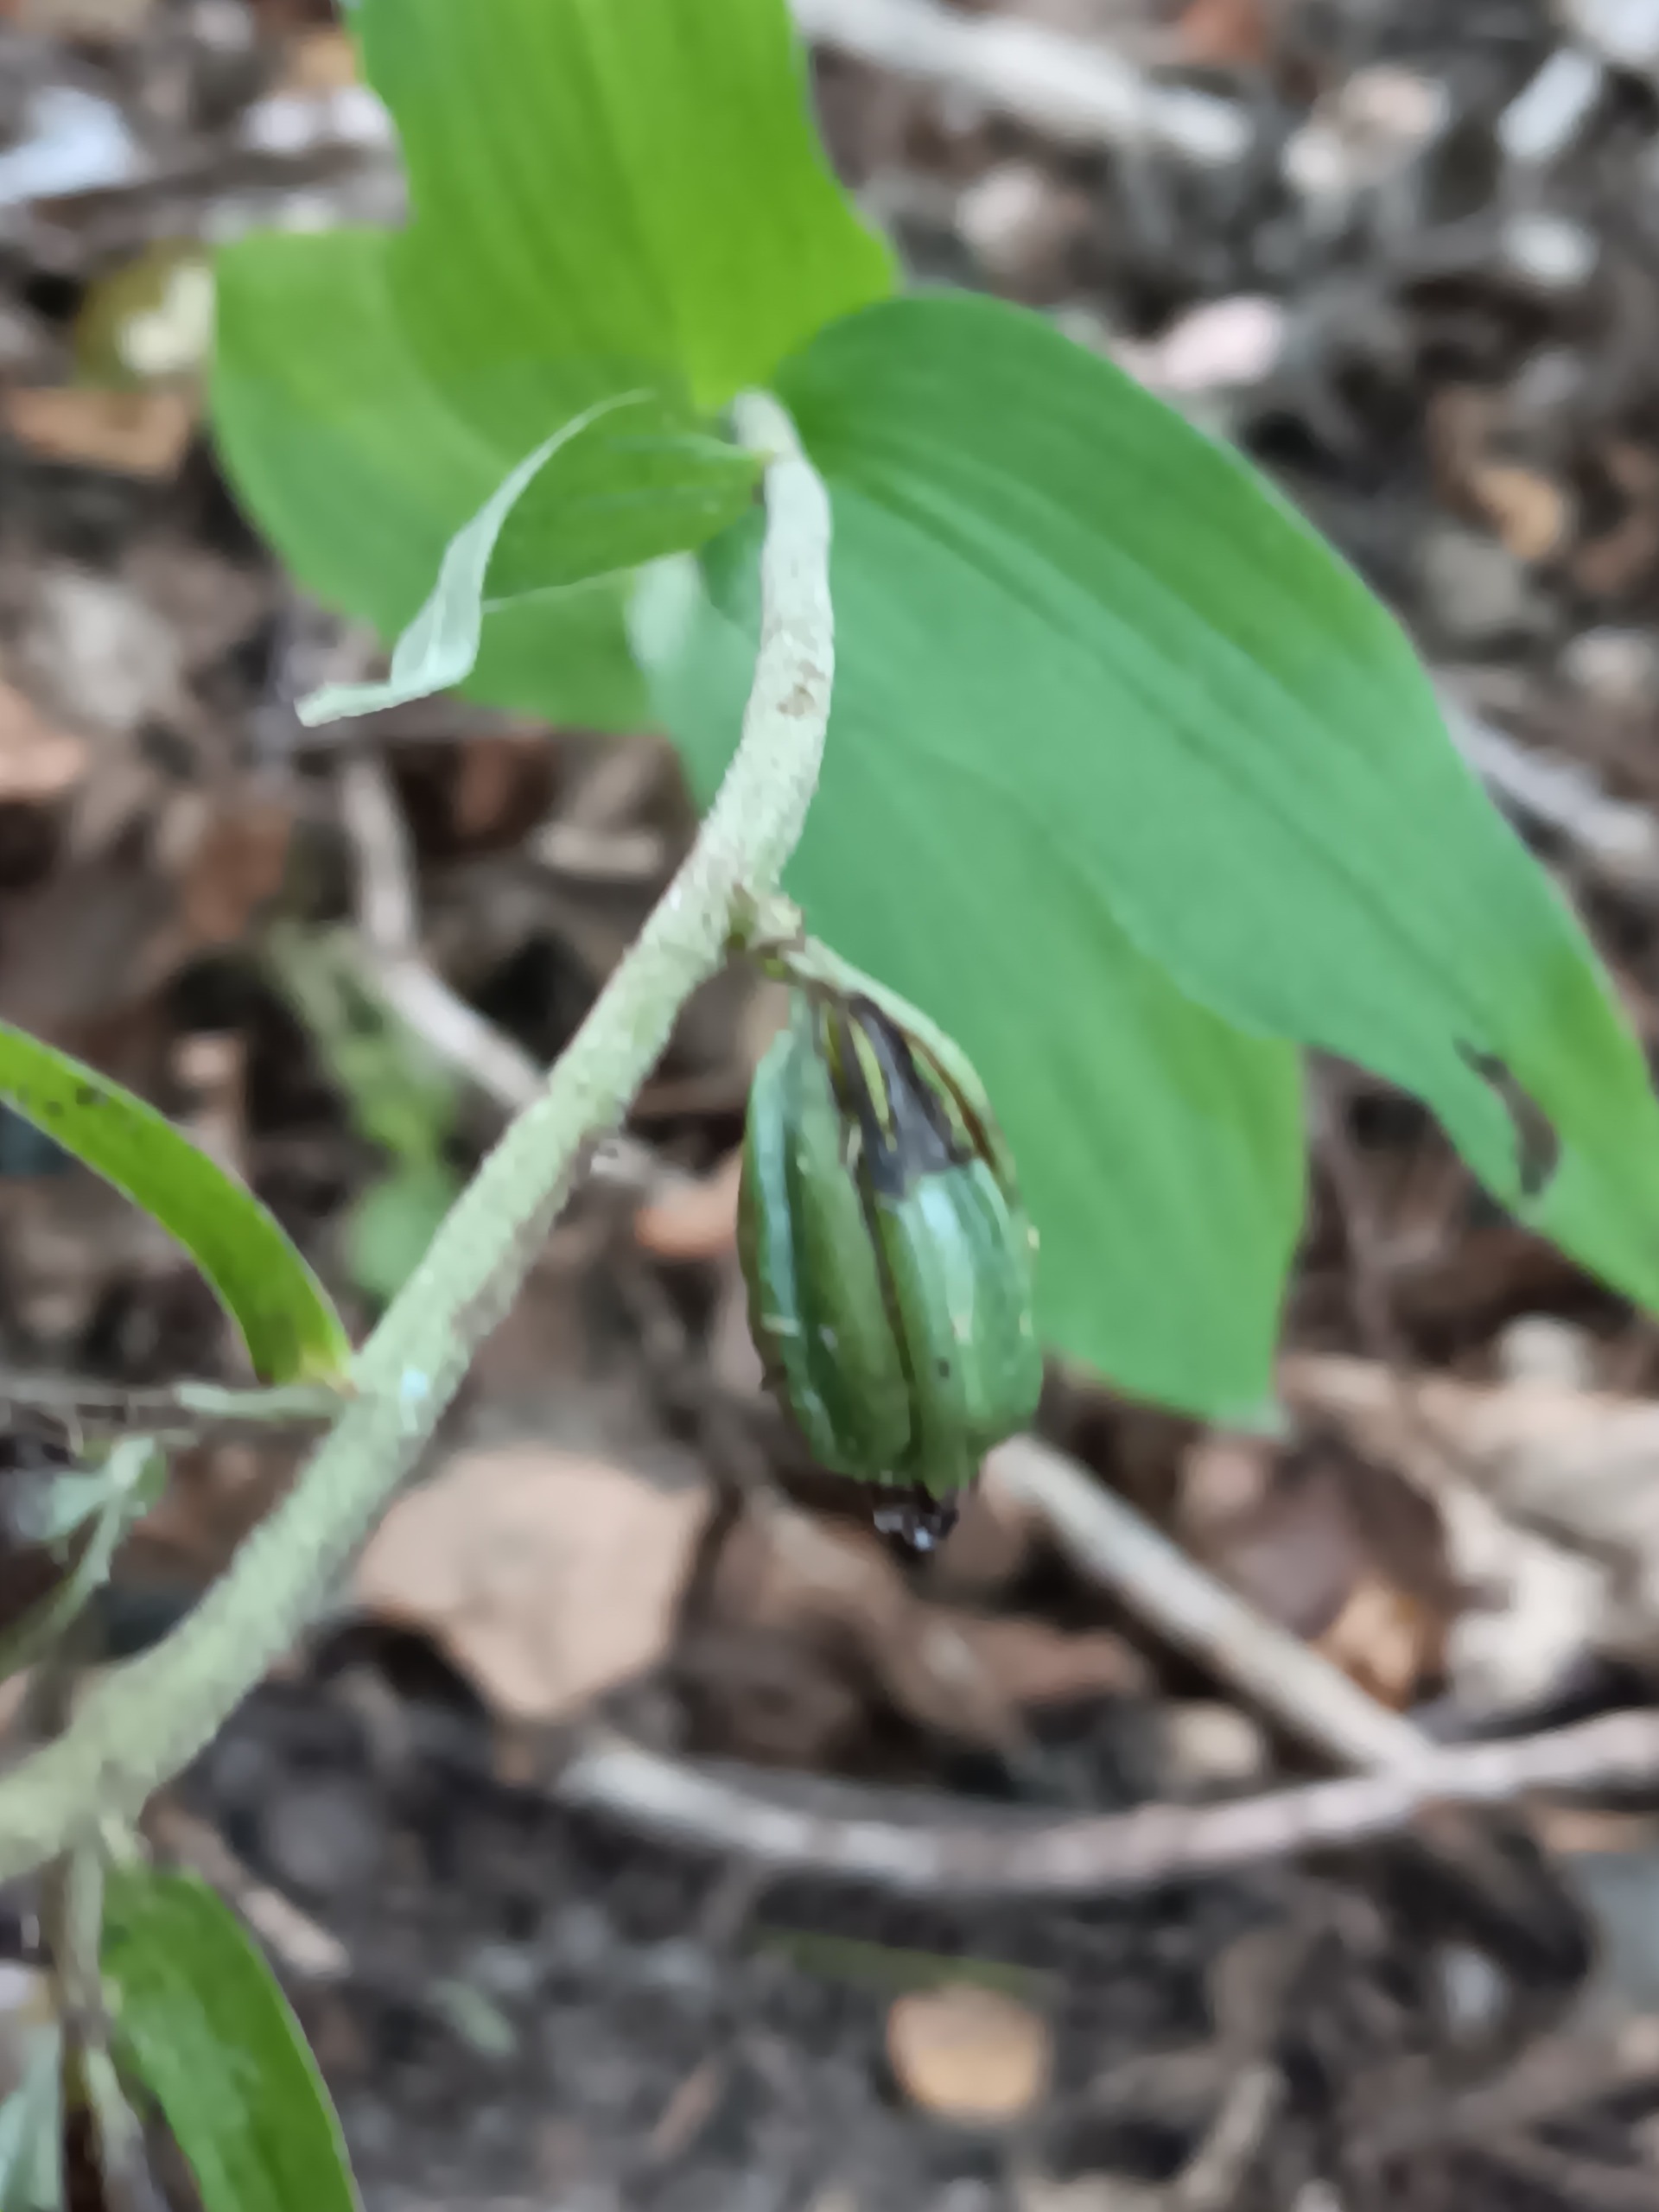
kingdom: Plantae
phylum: Tracheophyta
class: Liliopsida
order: Asparagales
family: Orchidaceae
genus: Epipactis
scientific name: Epipactis helleborine
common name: Skov-hullæbe
